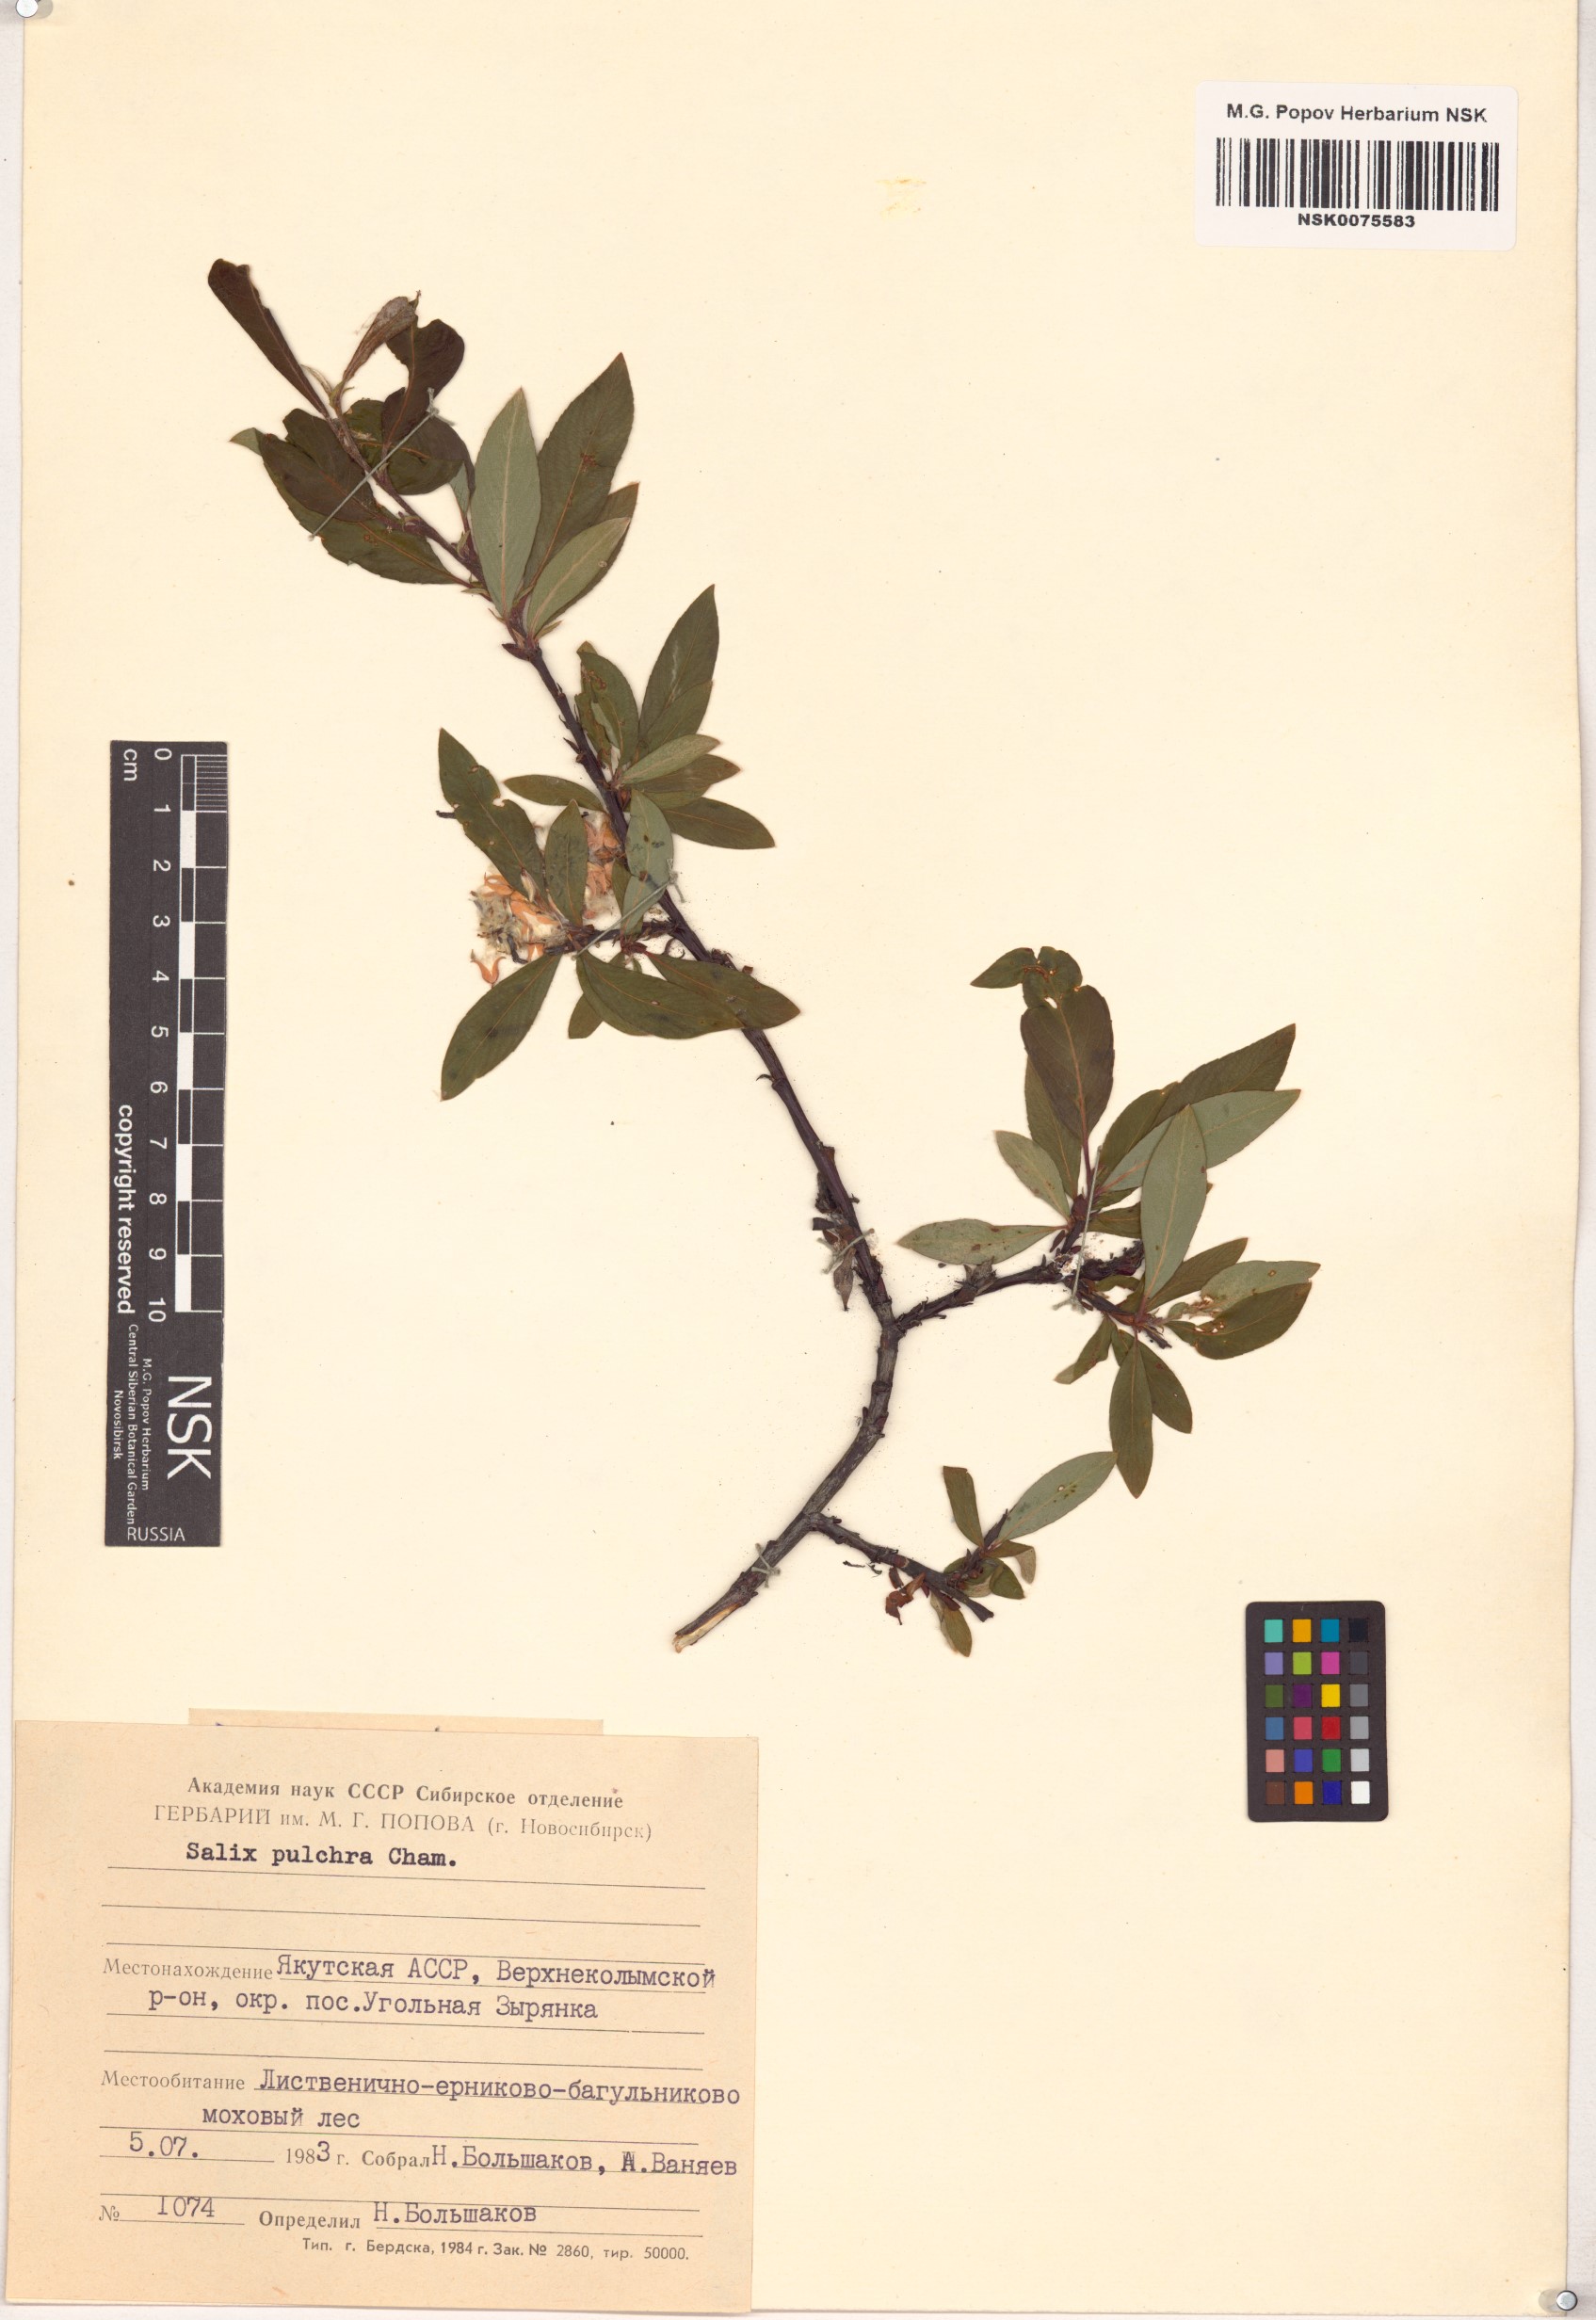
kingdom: Plantae
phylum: Tracheophyta
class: Magnoliopsida
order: Malpighiales
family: Salicaceae
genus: Salix
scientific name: Salix pulchra
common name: Diamond-leaved willow
